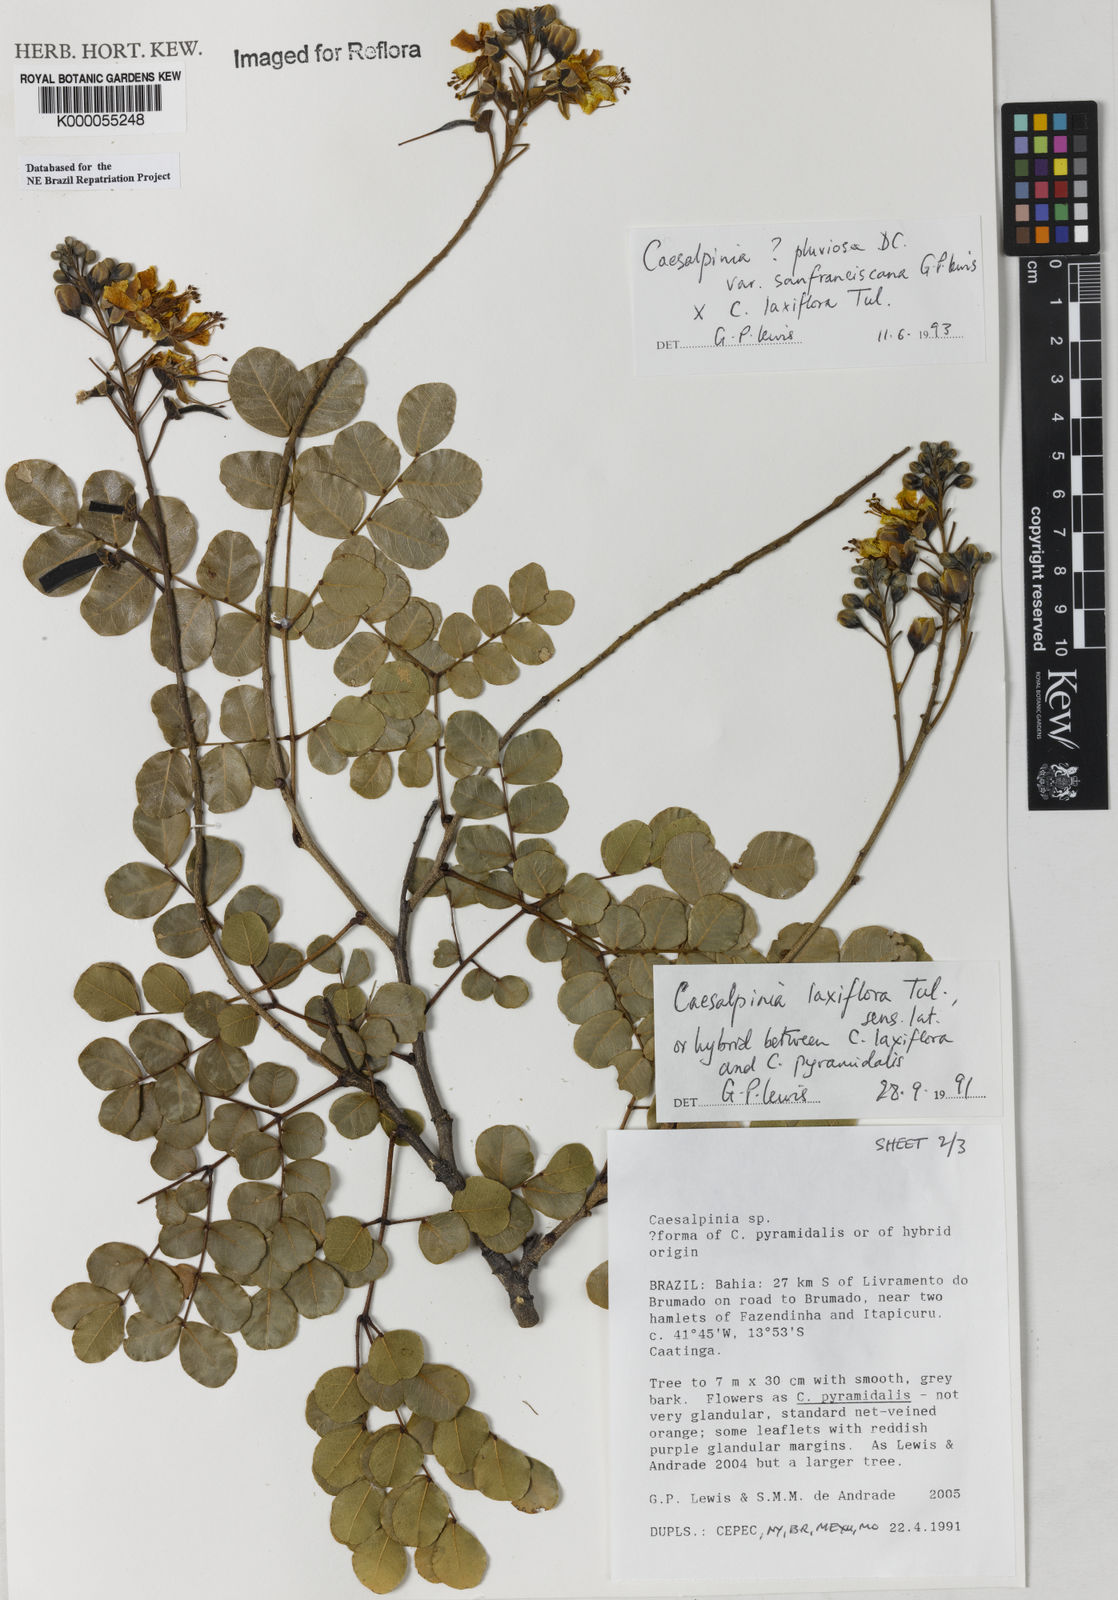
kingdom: Plantae
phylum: Tracheophyta
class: Magnoliopsida
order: Fabales
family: Fabaceae
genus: Cenostigma
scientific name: Cenostigma pluviosum
